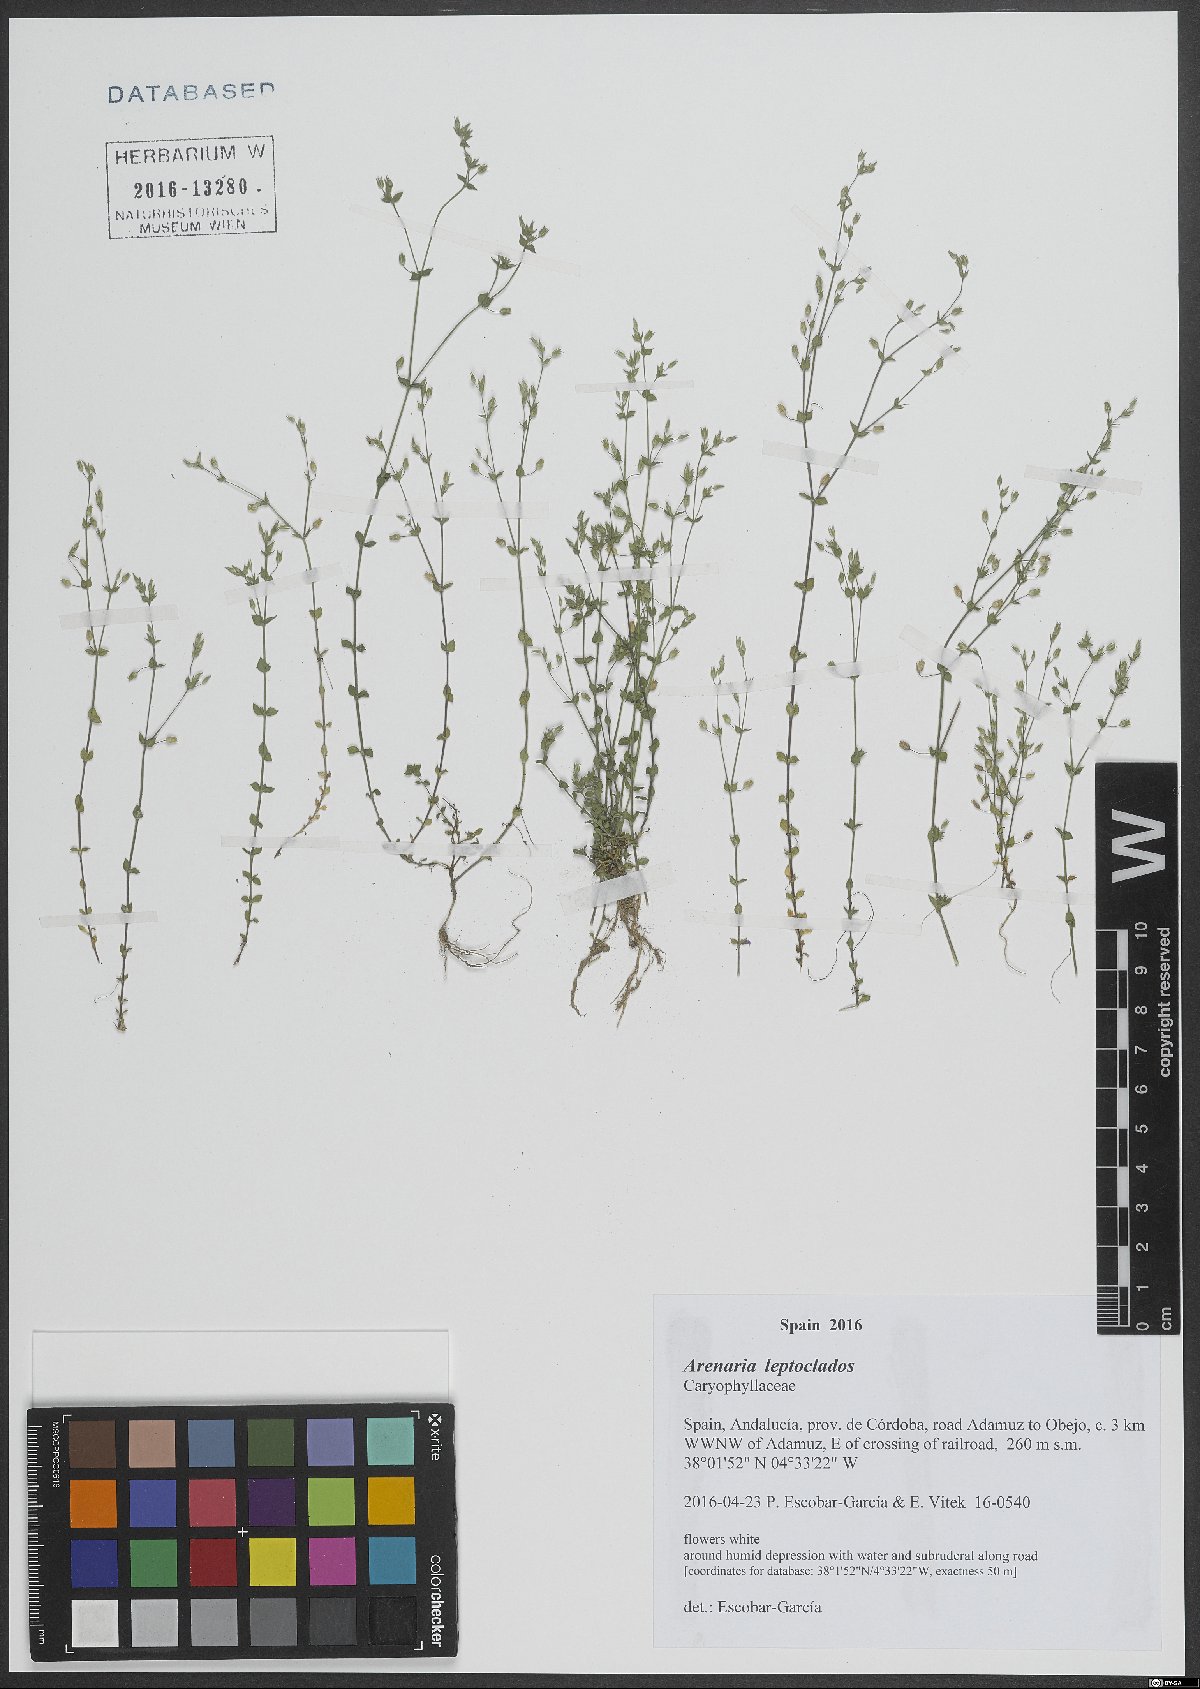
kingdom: Plantae
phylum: Tracheophyta
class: Magnoliopsida
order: Caryophyllales
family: Caryophyllaceae
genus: Arenaria
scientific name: Arenaria leptoclados
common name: Thyme-leaved sandwort
